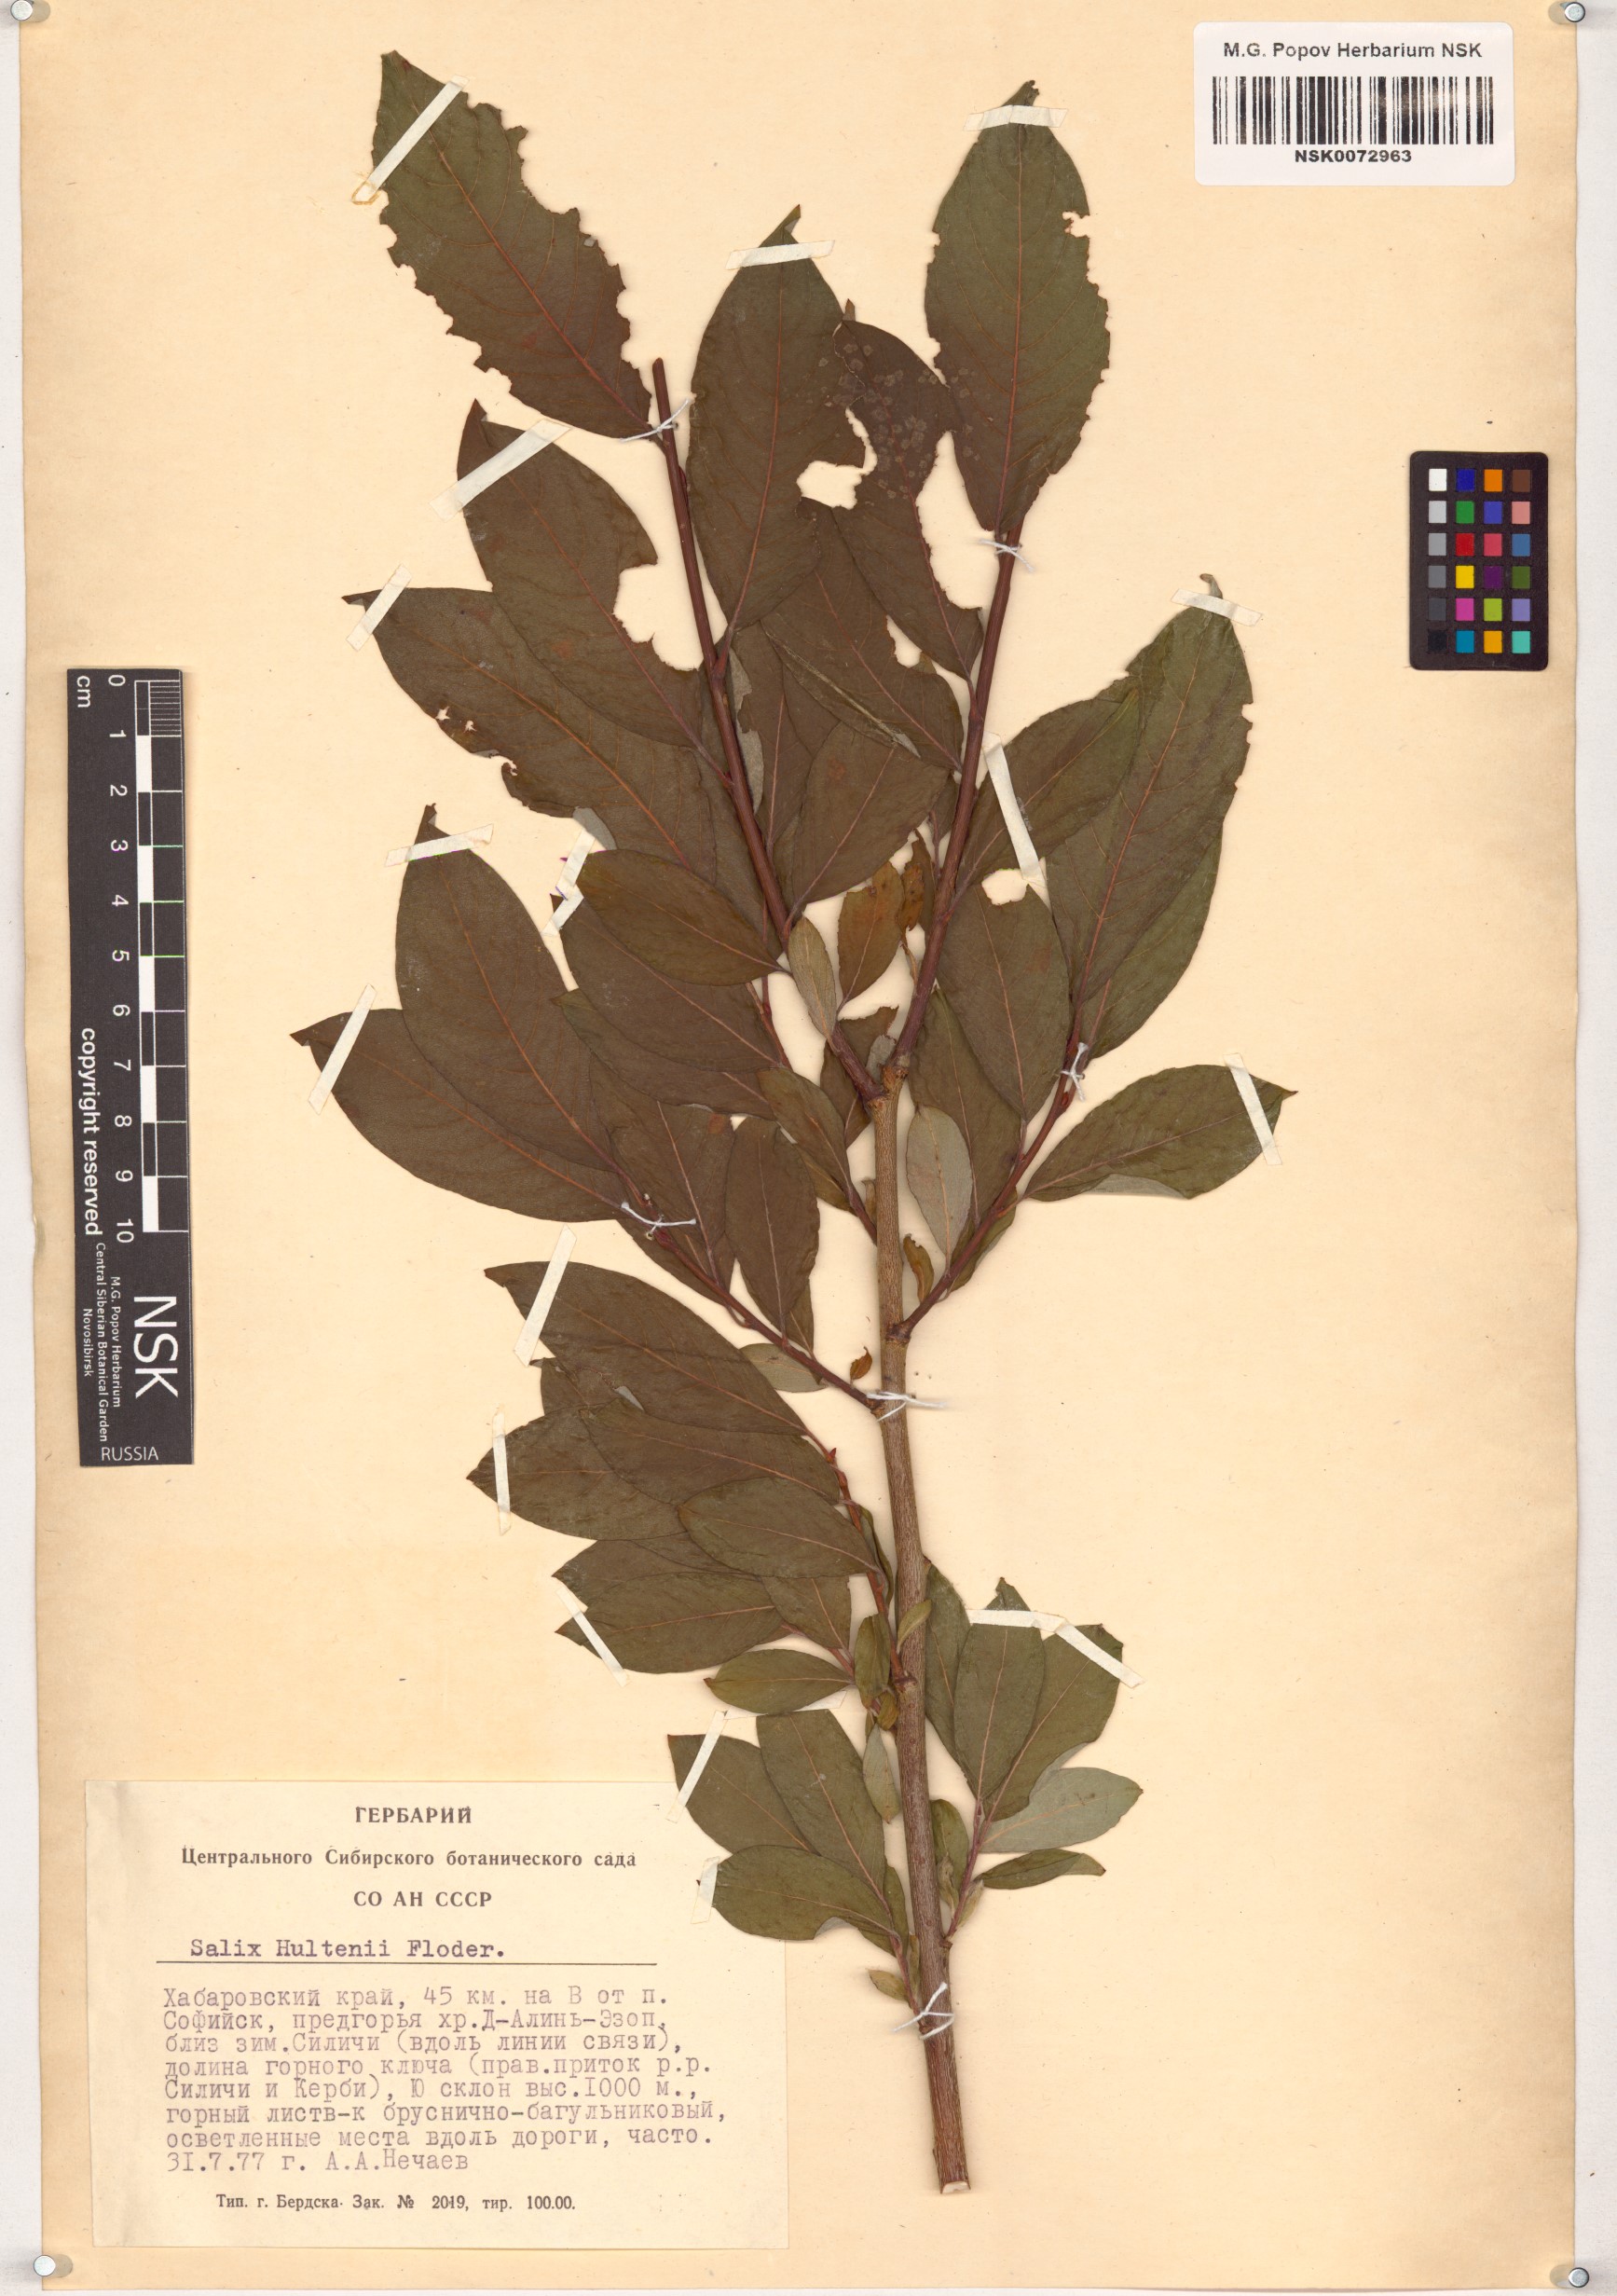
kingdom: Plantae
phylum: Tracheophyta
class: Magnoliopsida
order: Malpighiales
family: Salicaceae
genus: Salix
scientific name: Salix caprea
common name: Goat willow
